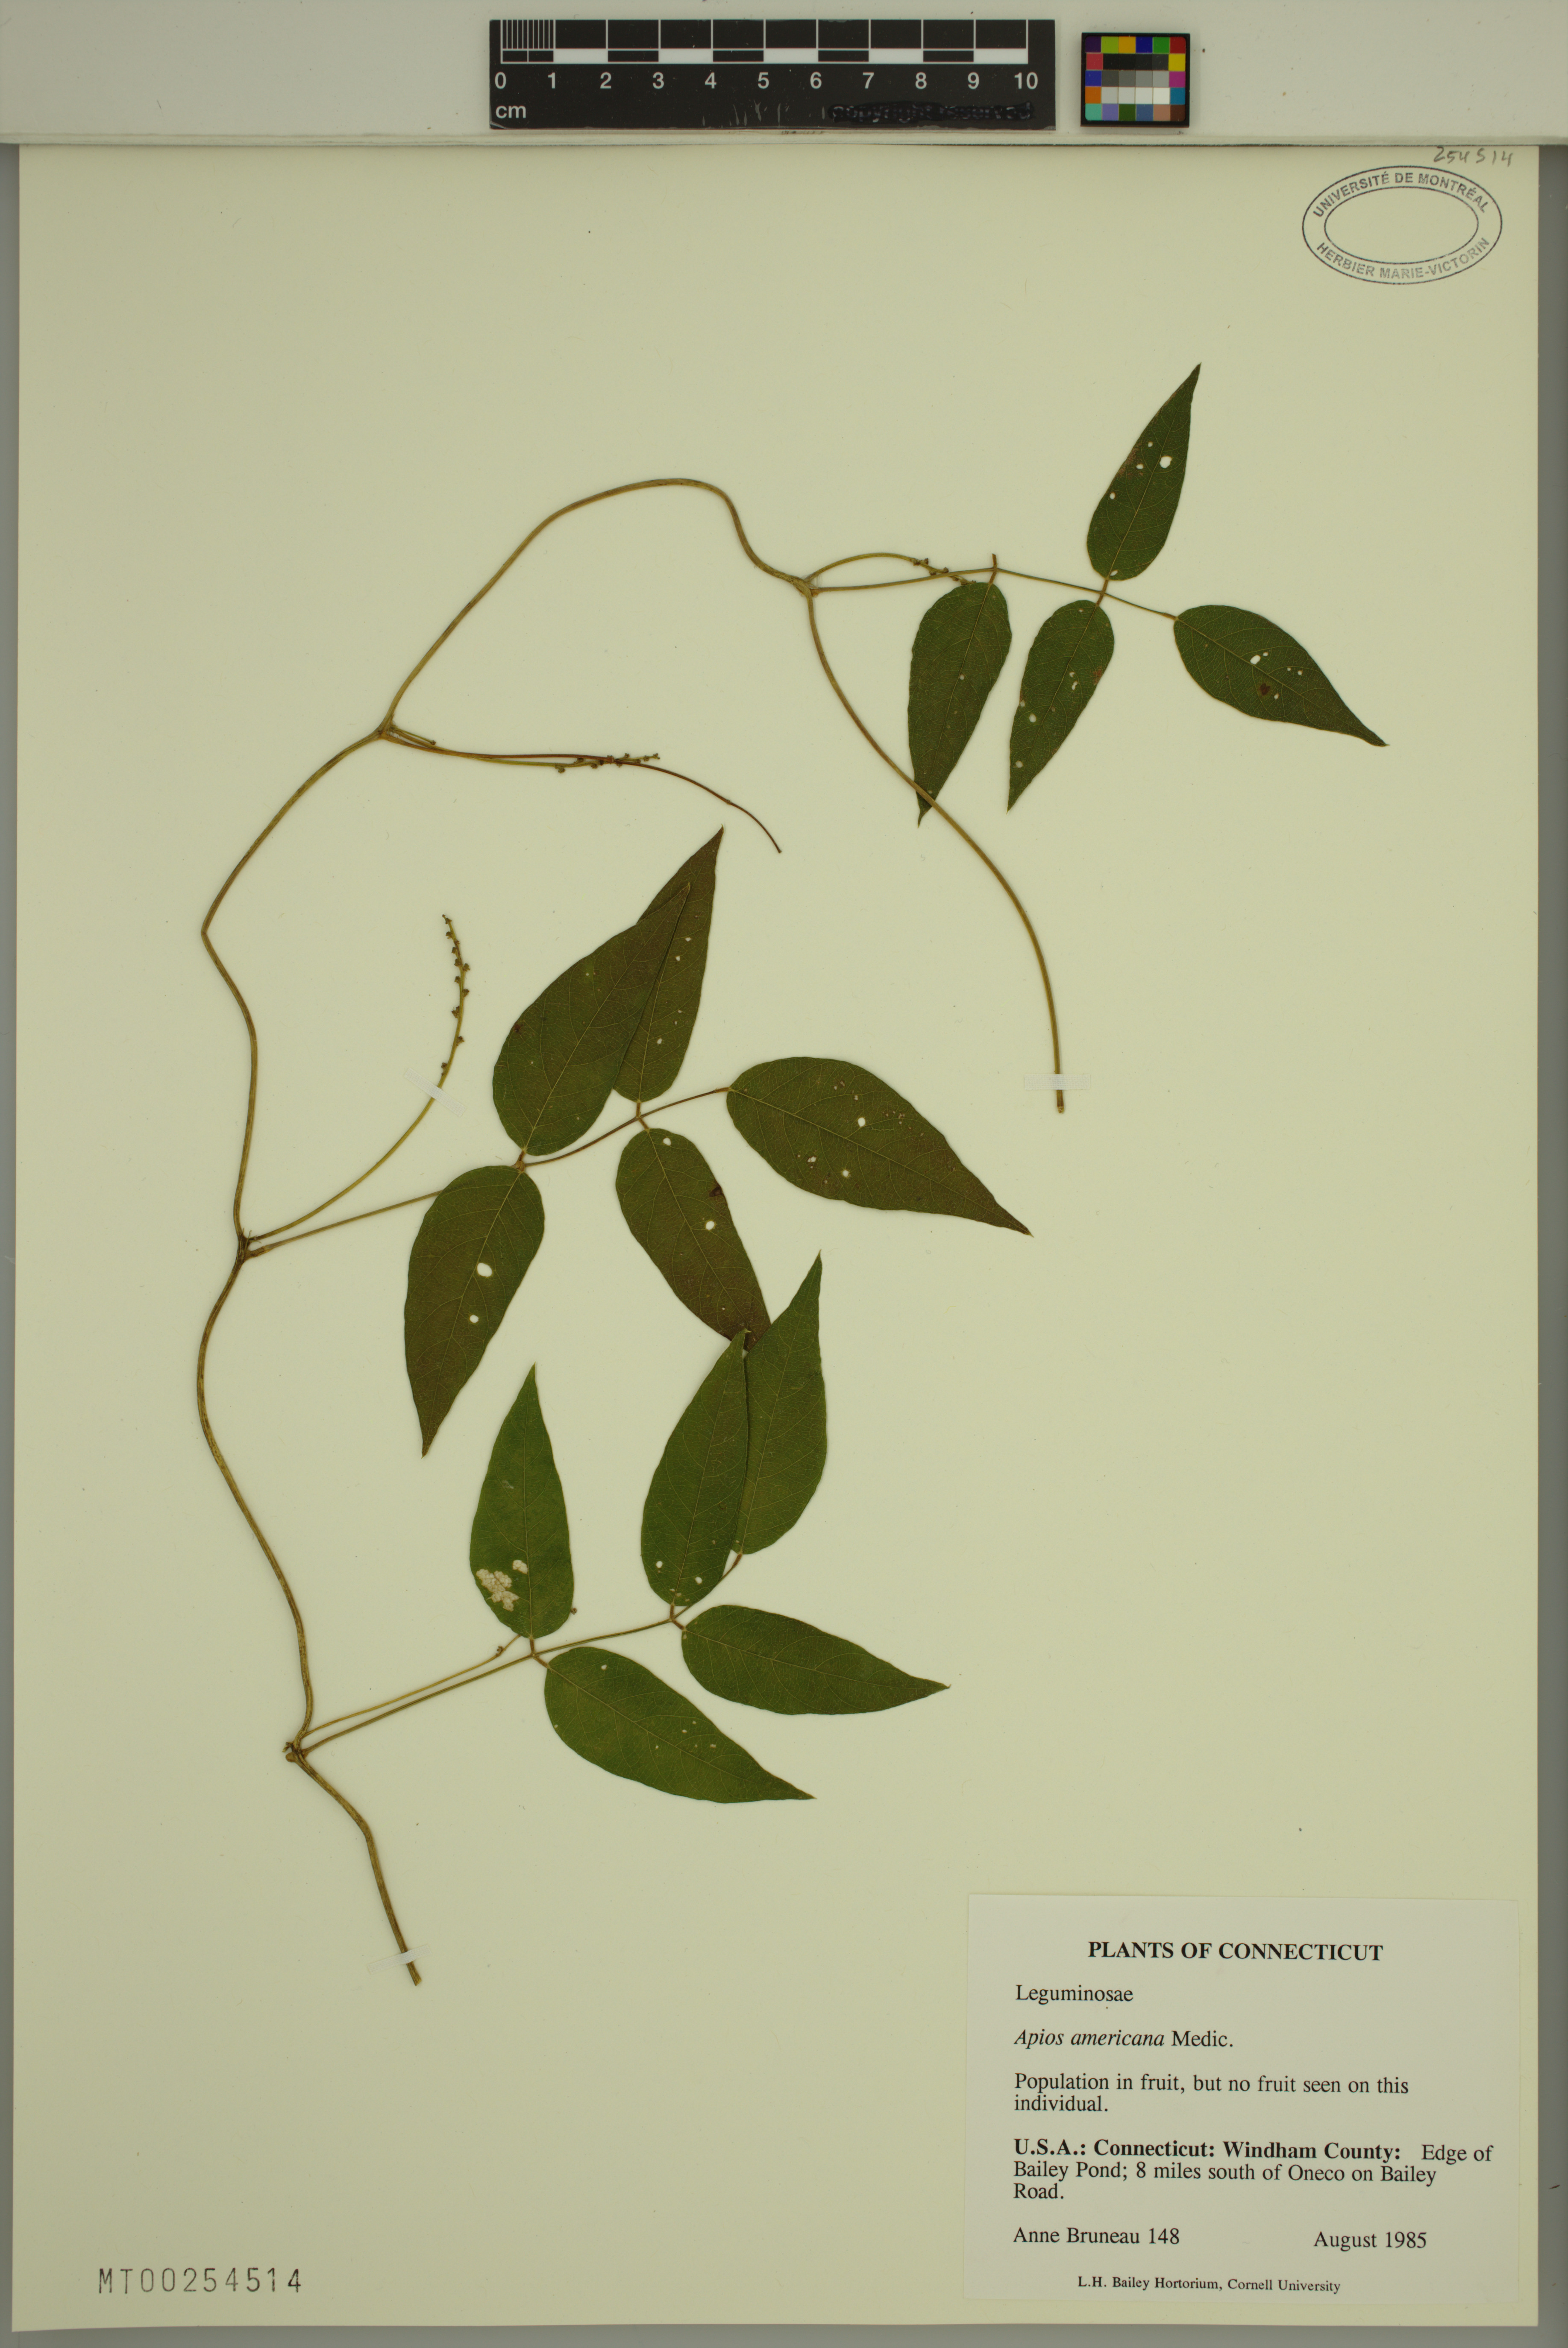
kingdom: Plantae
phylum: Tracheophyta
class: Magnoliopsida
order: Fabales
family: Fabaceae
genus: Apios
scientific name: Apios americana
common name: American potato-bean
